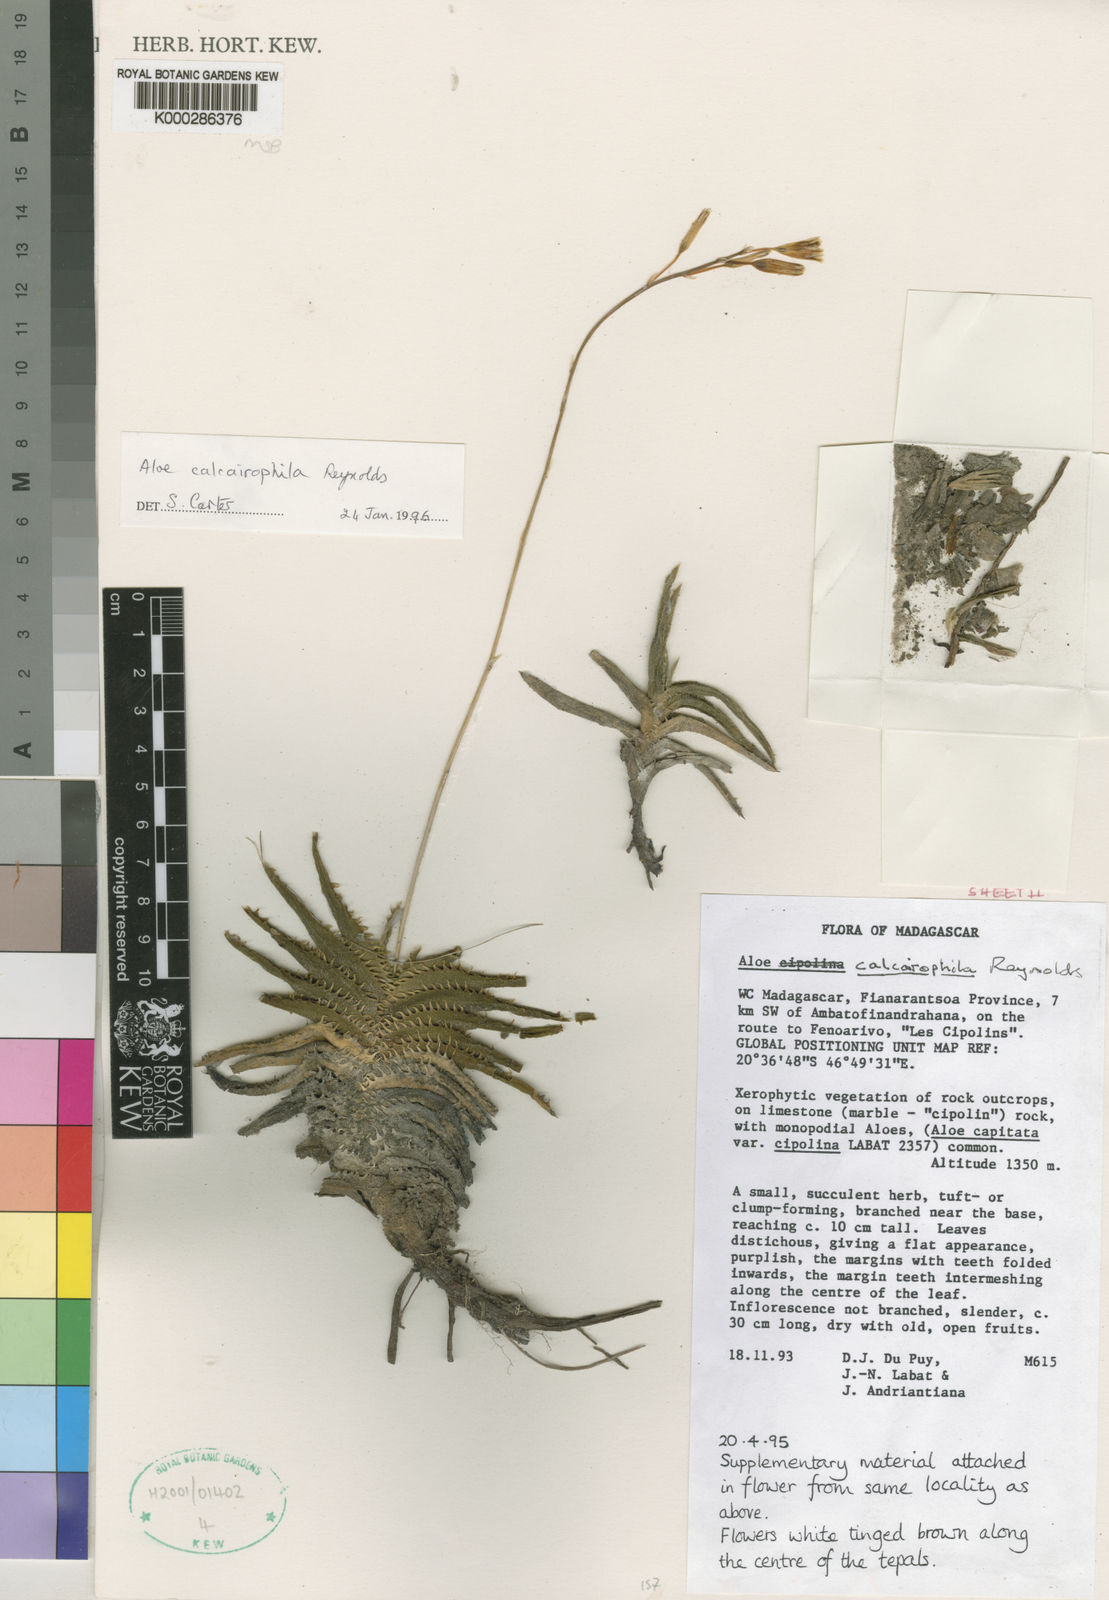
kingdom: Plantae
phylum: Tracheophyta
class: Liliopsida
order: Asparagales
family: Asphodelaceae
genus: Aloe
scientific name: Aloe calcairophila
